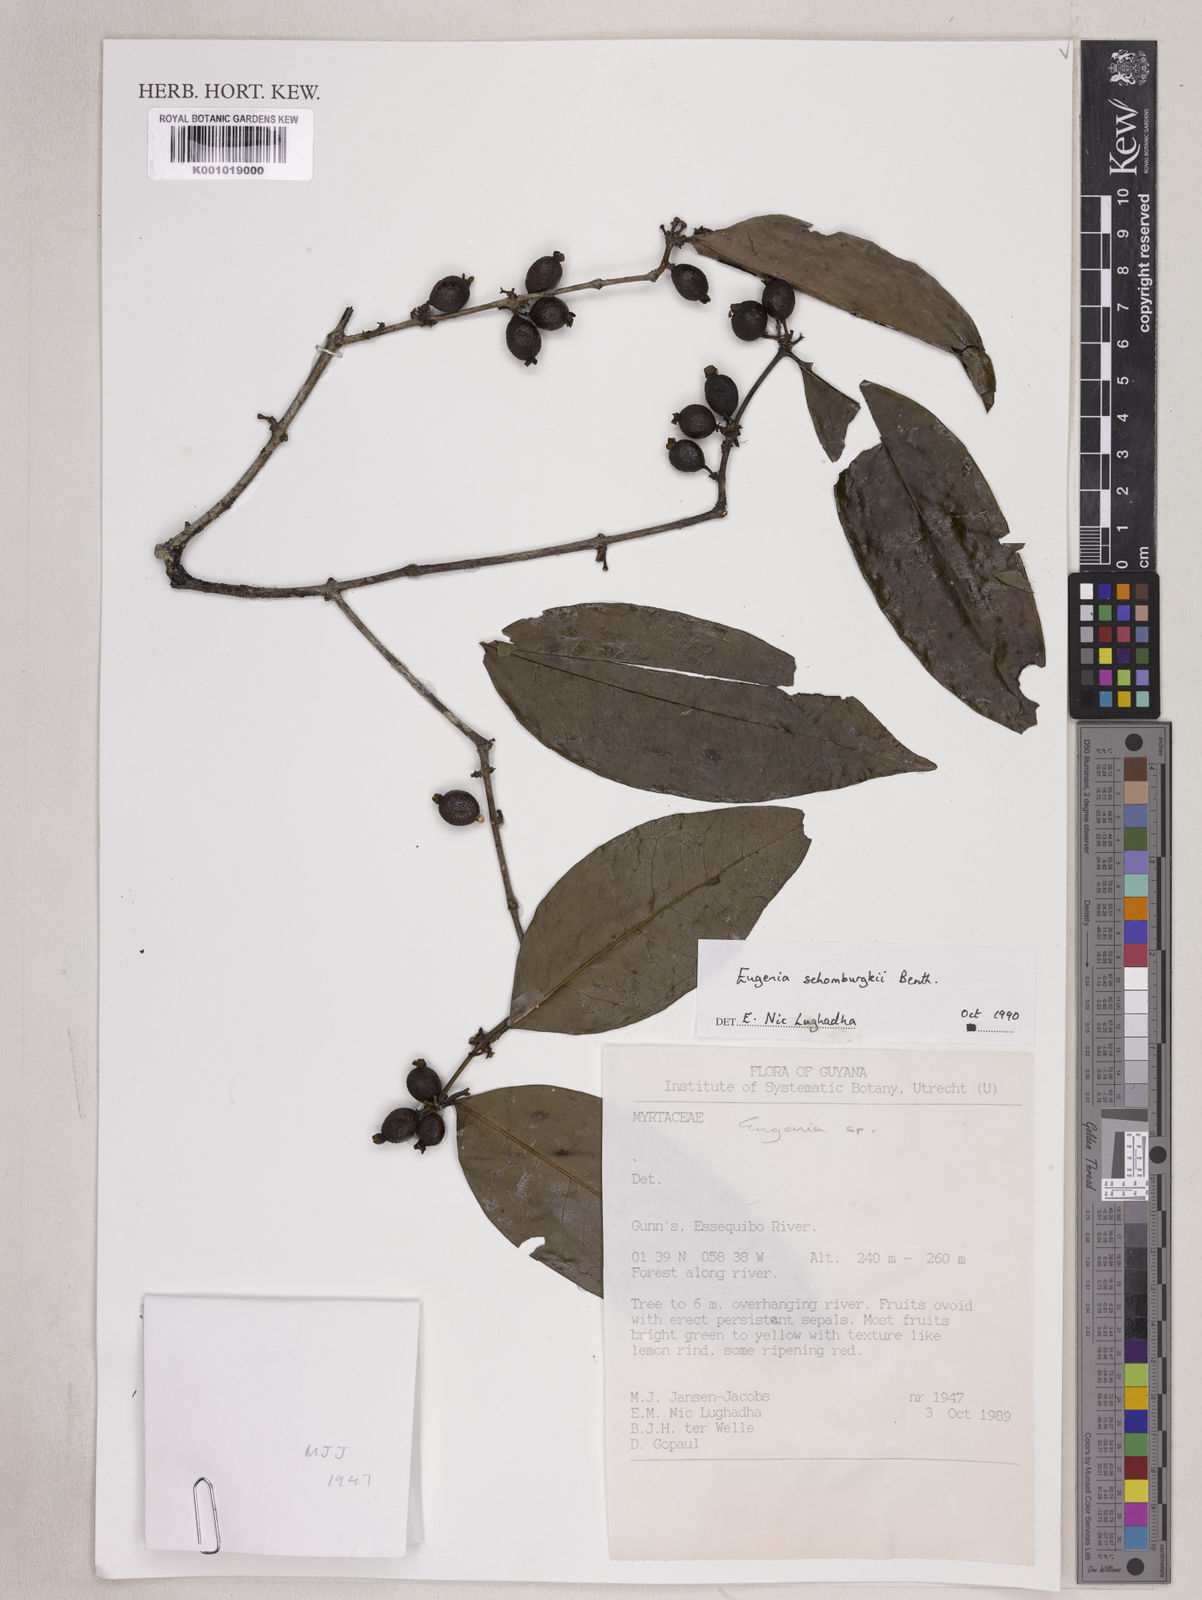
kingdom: Plantae
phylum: Tracheophyta
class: Magnoliopsida
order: Myrtales
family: Myrtaceae
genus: Eugenia
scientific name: Eugenia lambertiana
